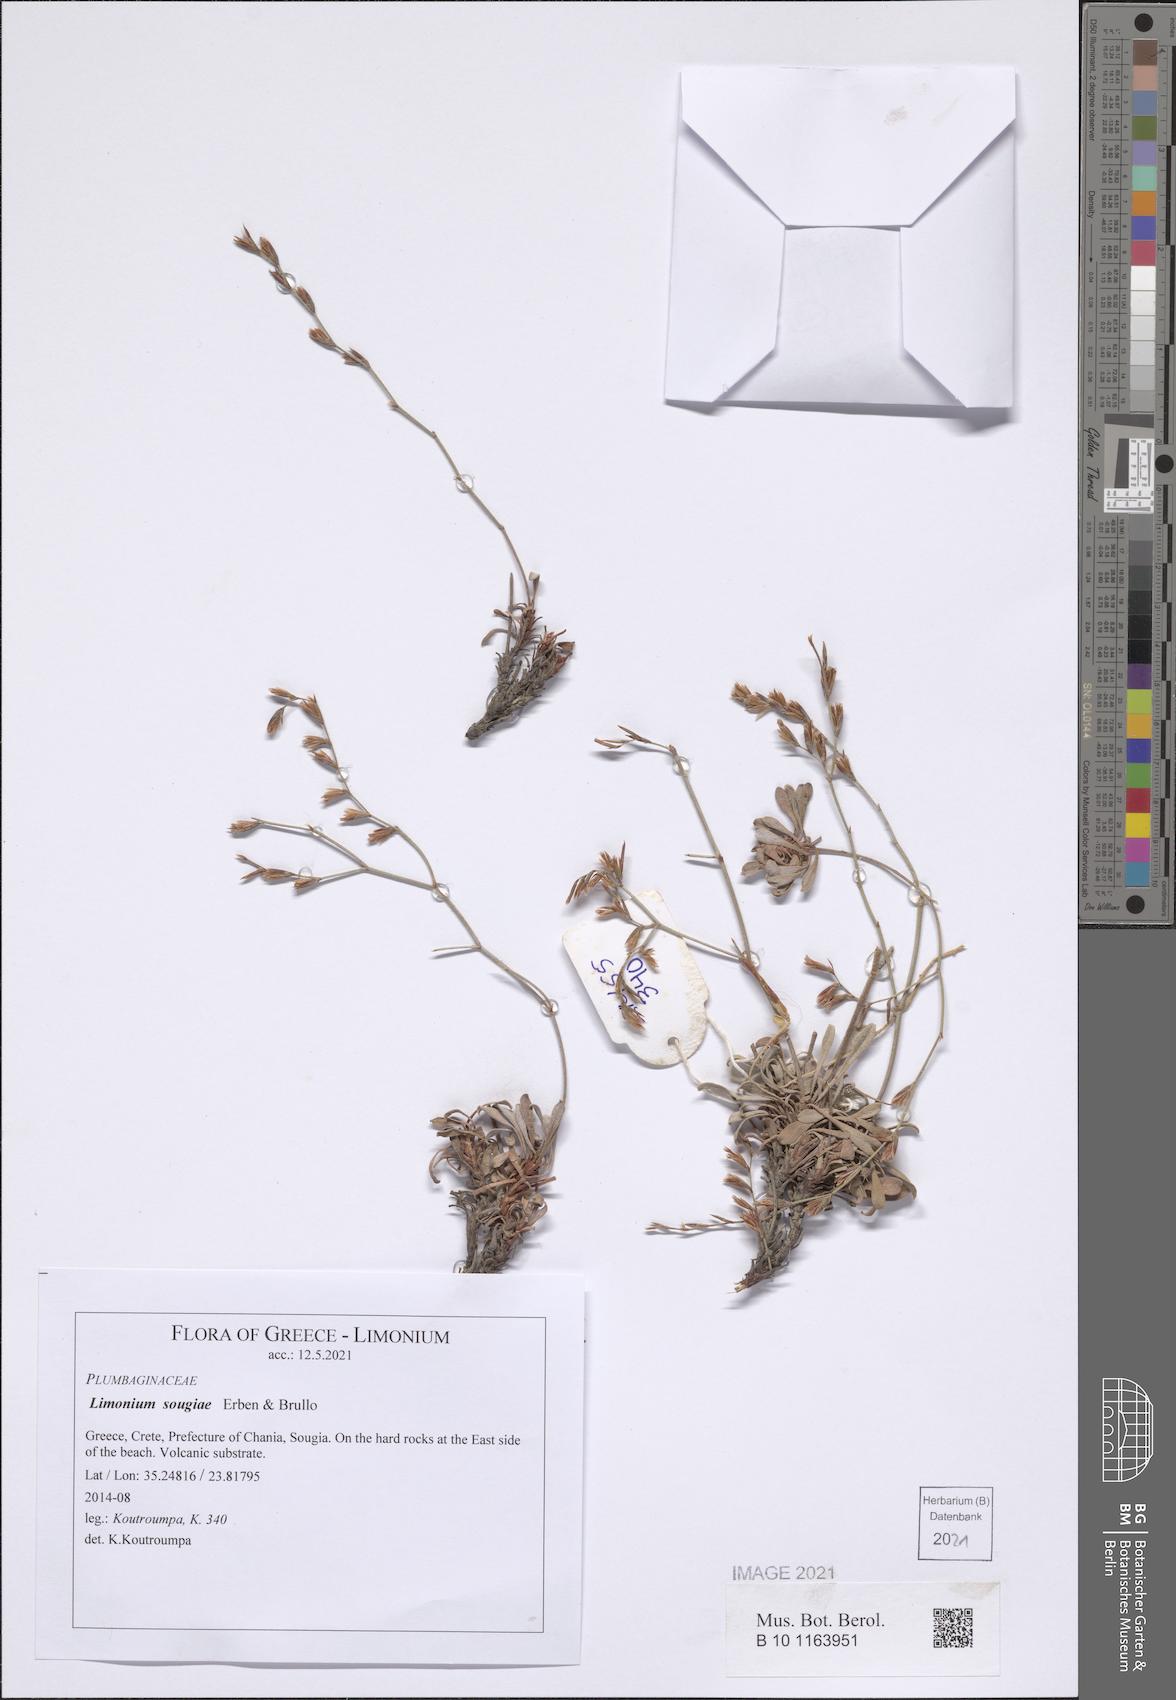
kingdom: Plantae
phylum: Tracheophyta
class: Magnoliopsida
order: Caryophyllales
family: Plumbaginaceae
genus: Limonium
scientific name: Limonium sougiae
